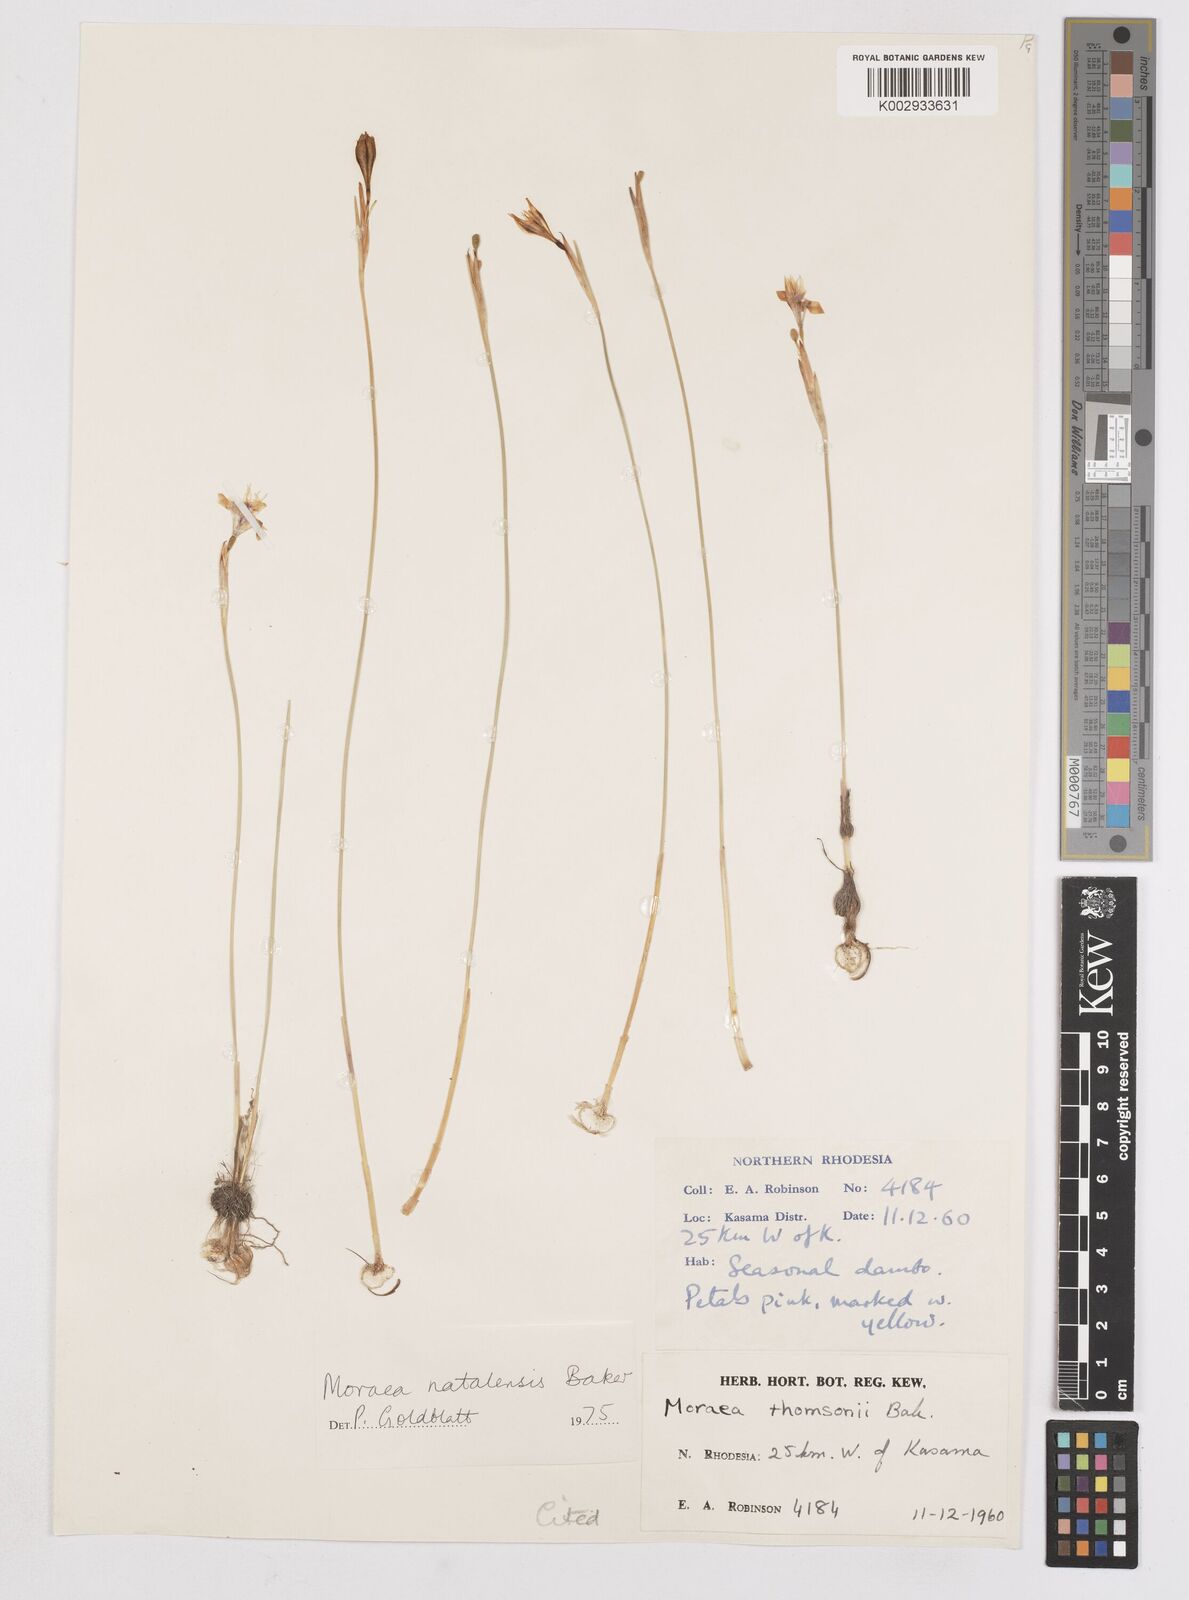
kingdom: Plantae
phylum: Tracheophyta
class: Liliopsida
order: Asparagales
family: Iridaceae
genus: Moraea
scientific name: Moraea natalensis
